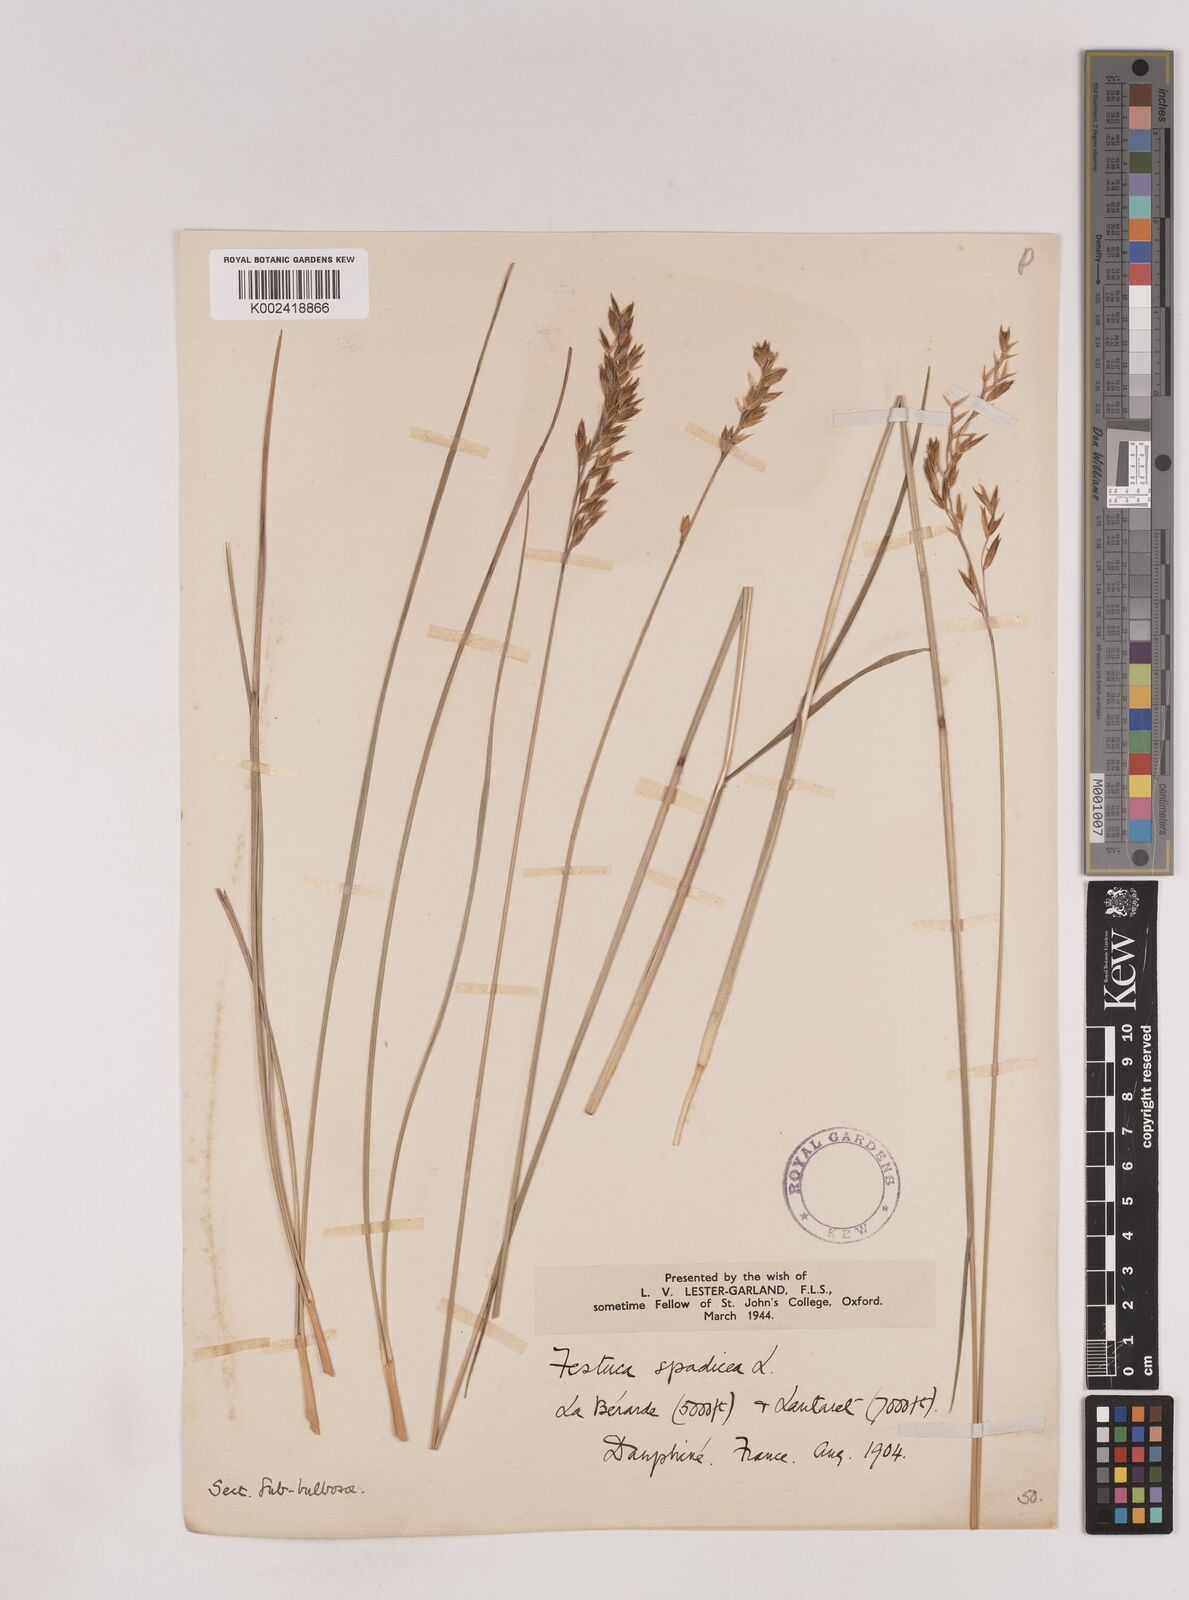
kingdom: Plantae
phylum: Tracheophyta
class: Liliopsida
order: Poales
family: Poaceae
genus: Patzkea
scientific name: Patzkea paniculata
